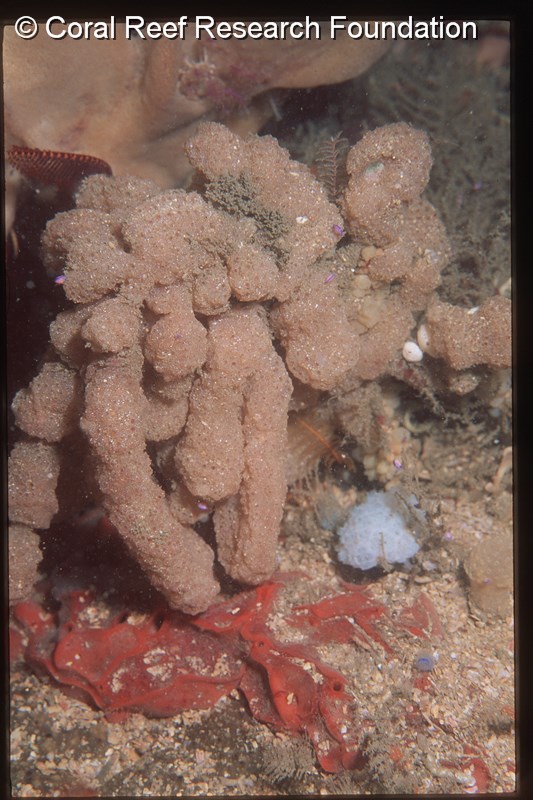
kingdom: Animalia
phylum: Chordata
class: Ascidiacea
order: Aplousobranchia
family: Polycitoridae
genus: Polycitor
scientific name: Polycitor porrecta
